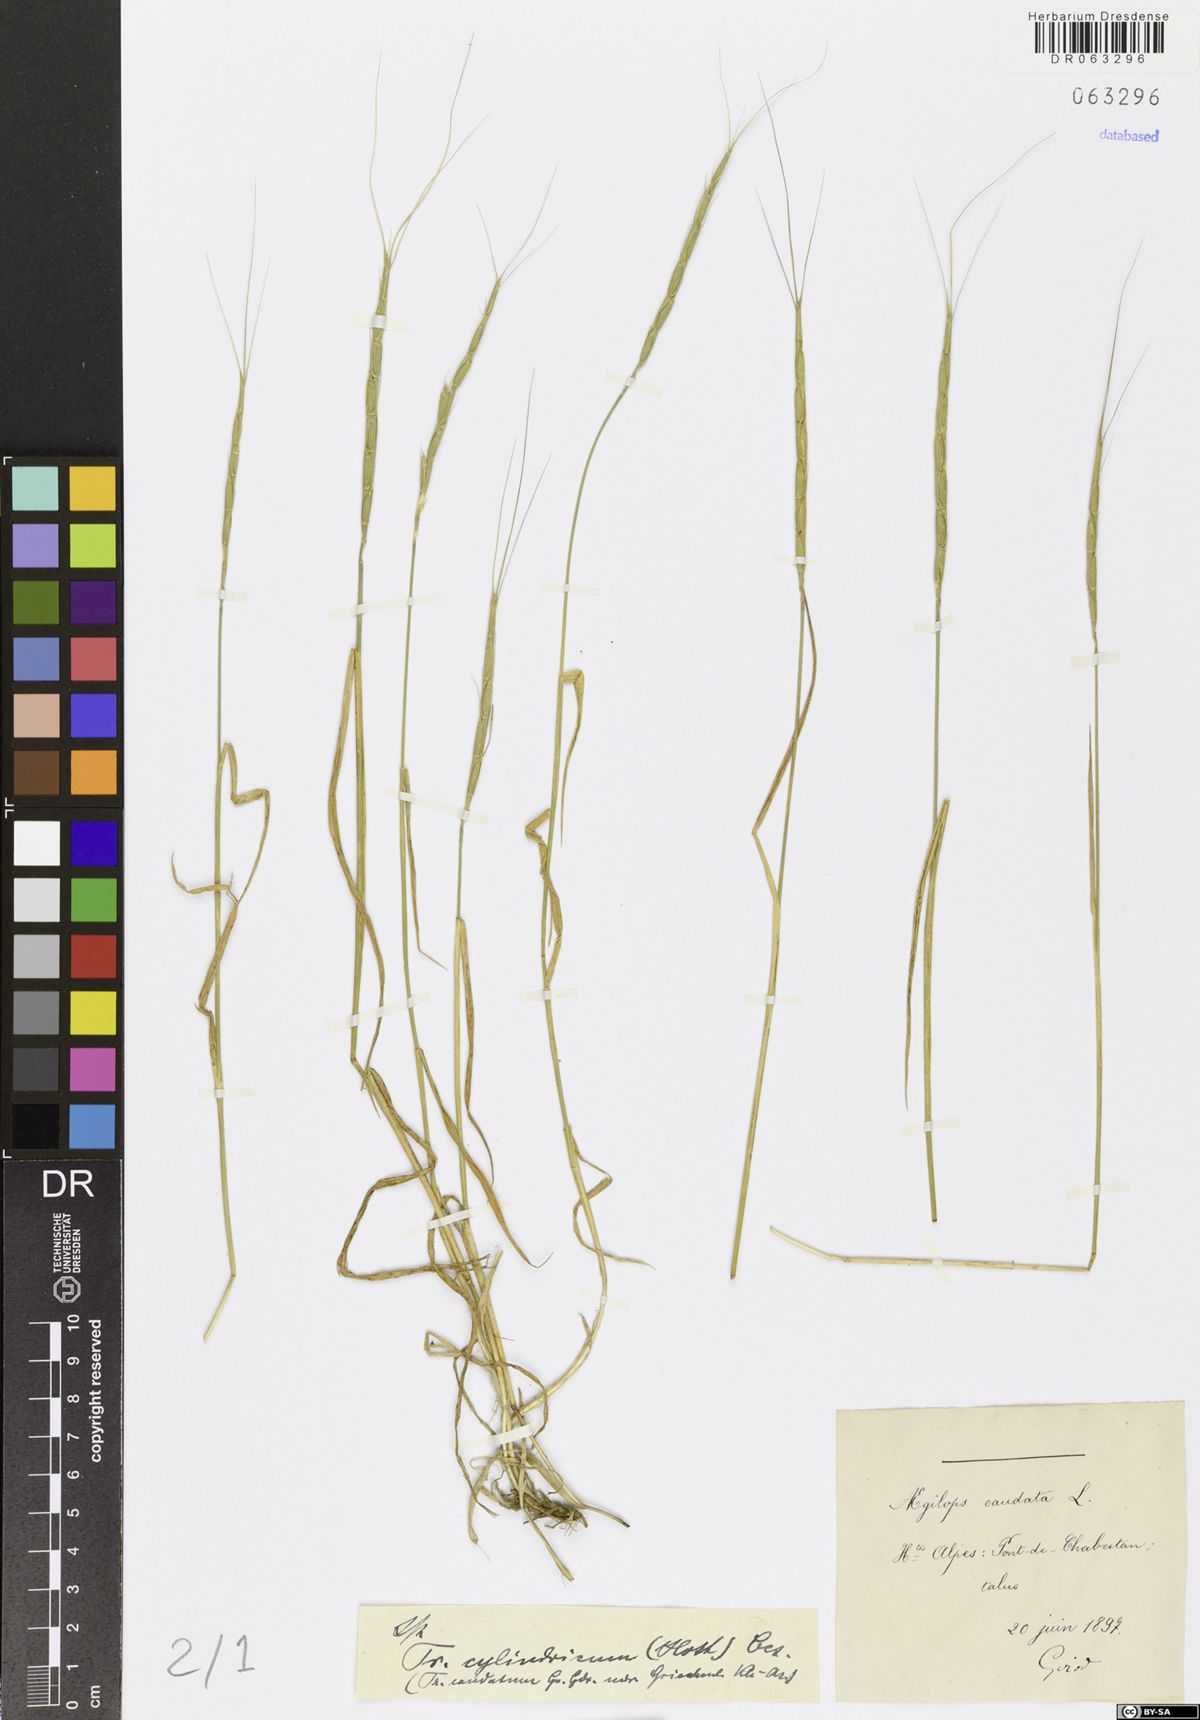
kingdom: Plantae
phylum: Tracheophyta
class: Liliopsida
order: Poales
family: Poaceae
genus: Aegilops
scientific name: Aegilops caudata
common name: Cretan hard-grass
